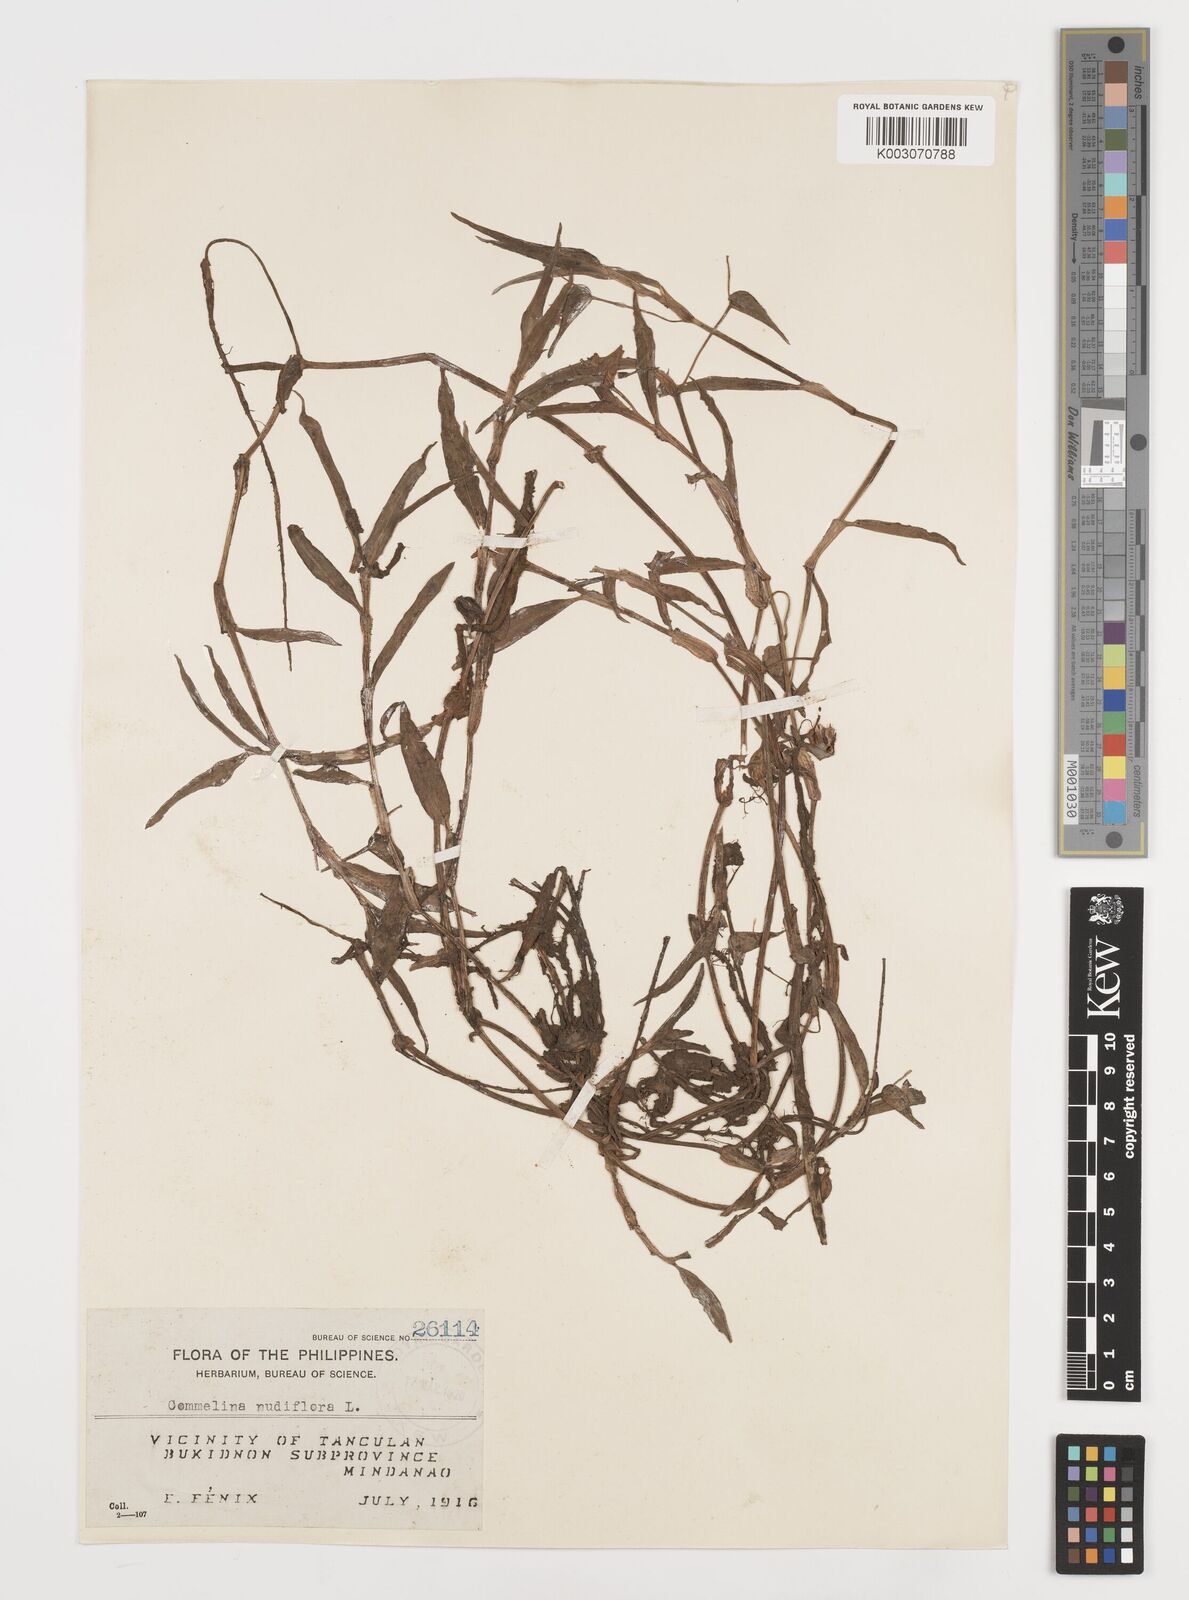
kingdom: Plantae
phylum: Tracheophyta
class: Liliopsida
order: Commelinales
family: Commelinaceae
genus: Murdannia
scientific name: Murdannia nudiflora
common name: Nakedstem dewflower
